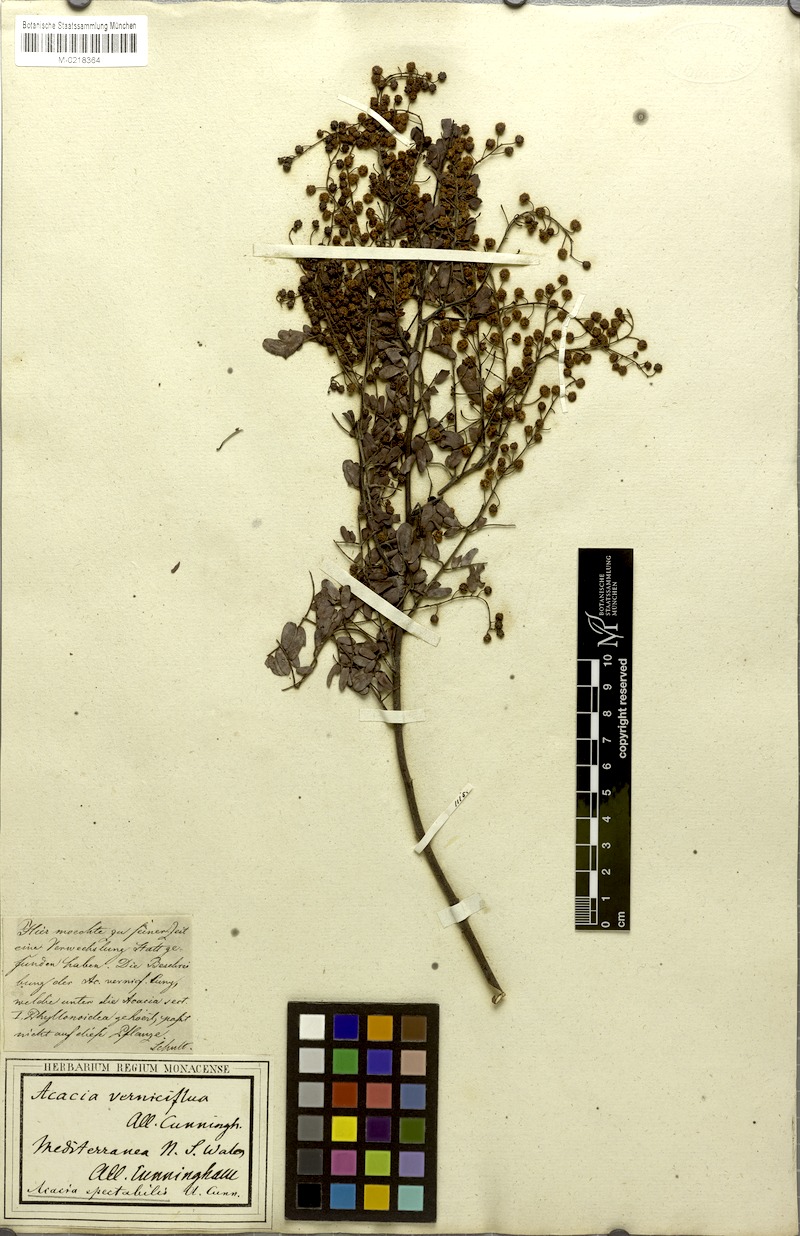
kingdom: Plantae
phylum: Tracheophyta
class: Magnoliopsida
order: Fabales
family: Fabaceae
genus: Acacia
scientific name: Acacia spectabilis
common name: Golden wattle
